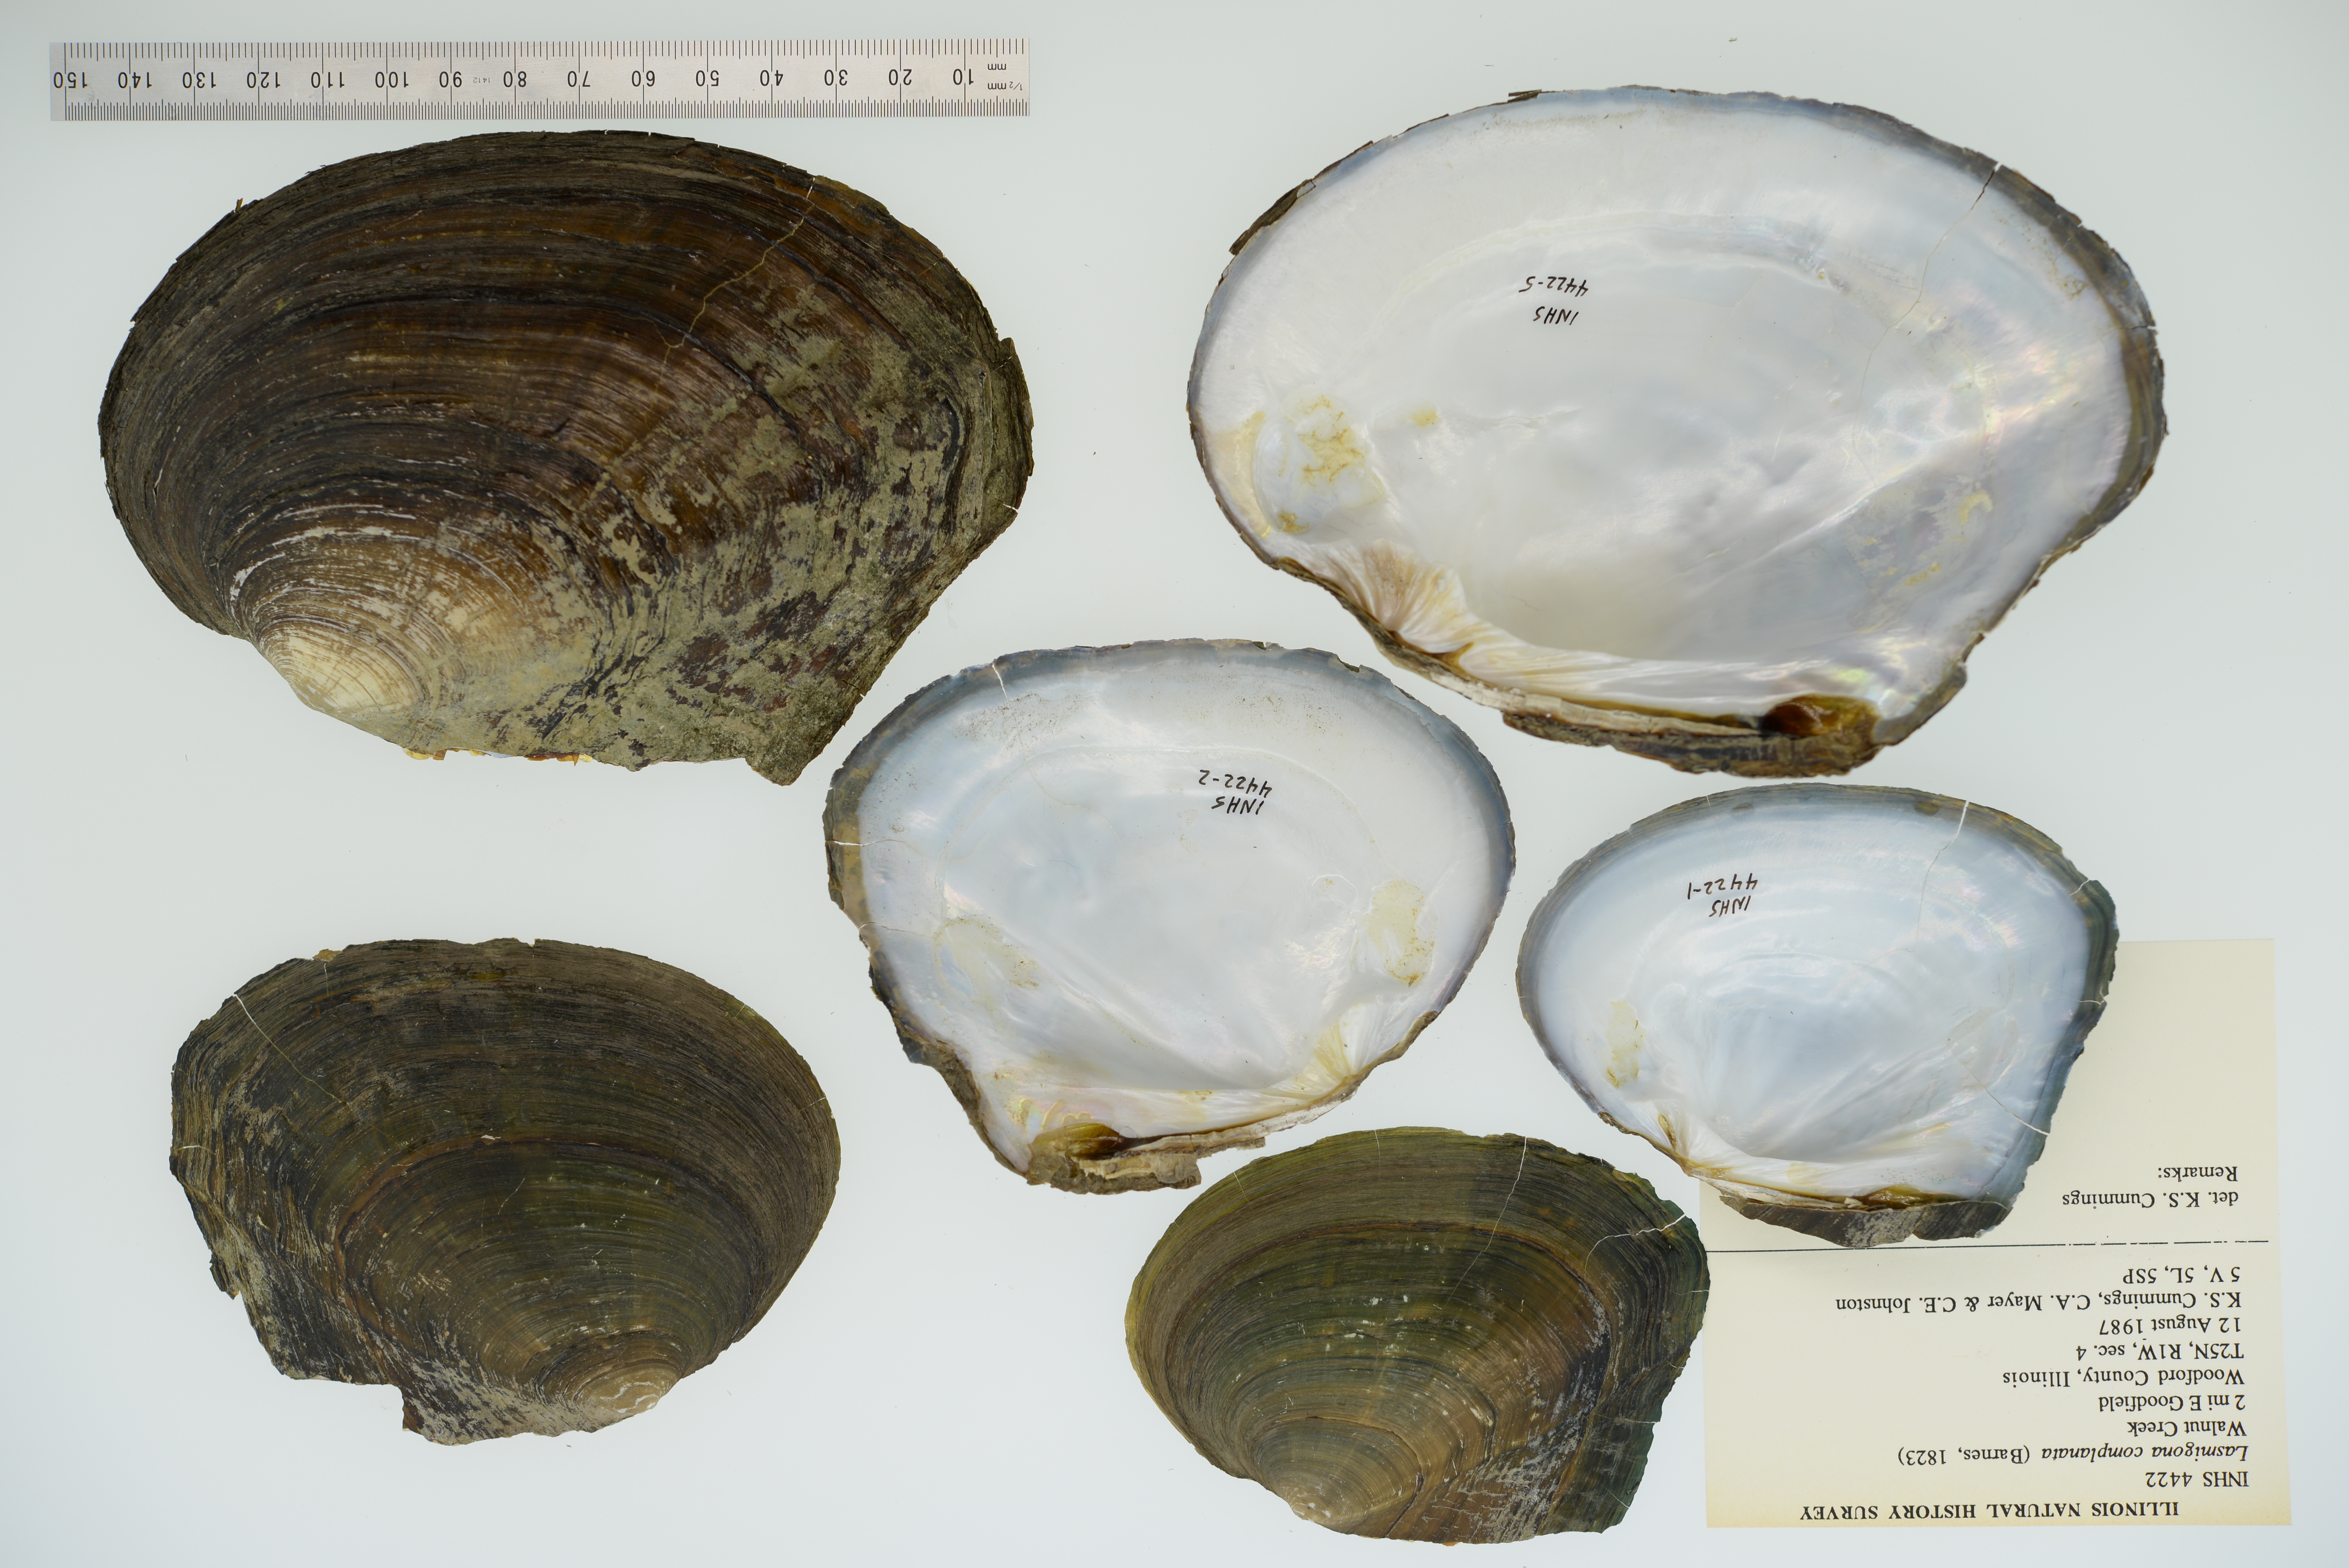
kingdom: Animalia
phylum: Mollusca
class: Bivalvia
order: Unionida
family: Unionidae
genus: Lasmigona
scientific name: Lasmigona complanata
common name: White heelsplitter
